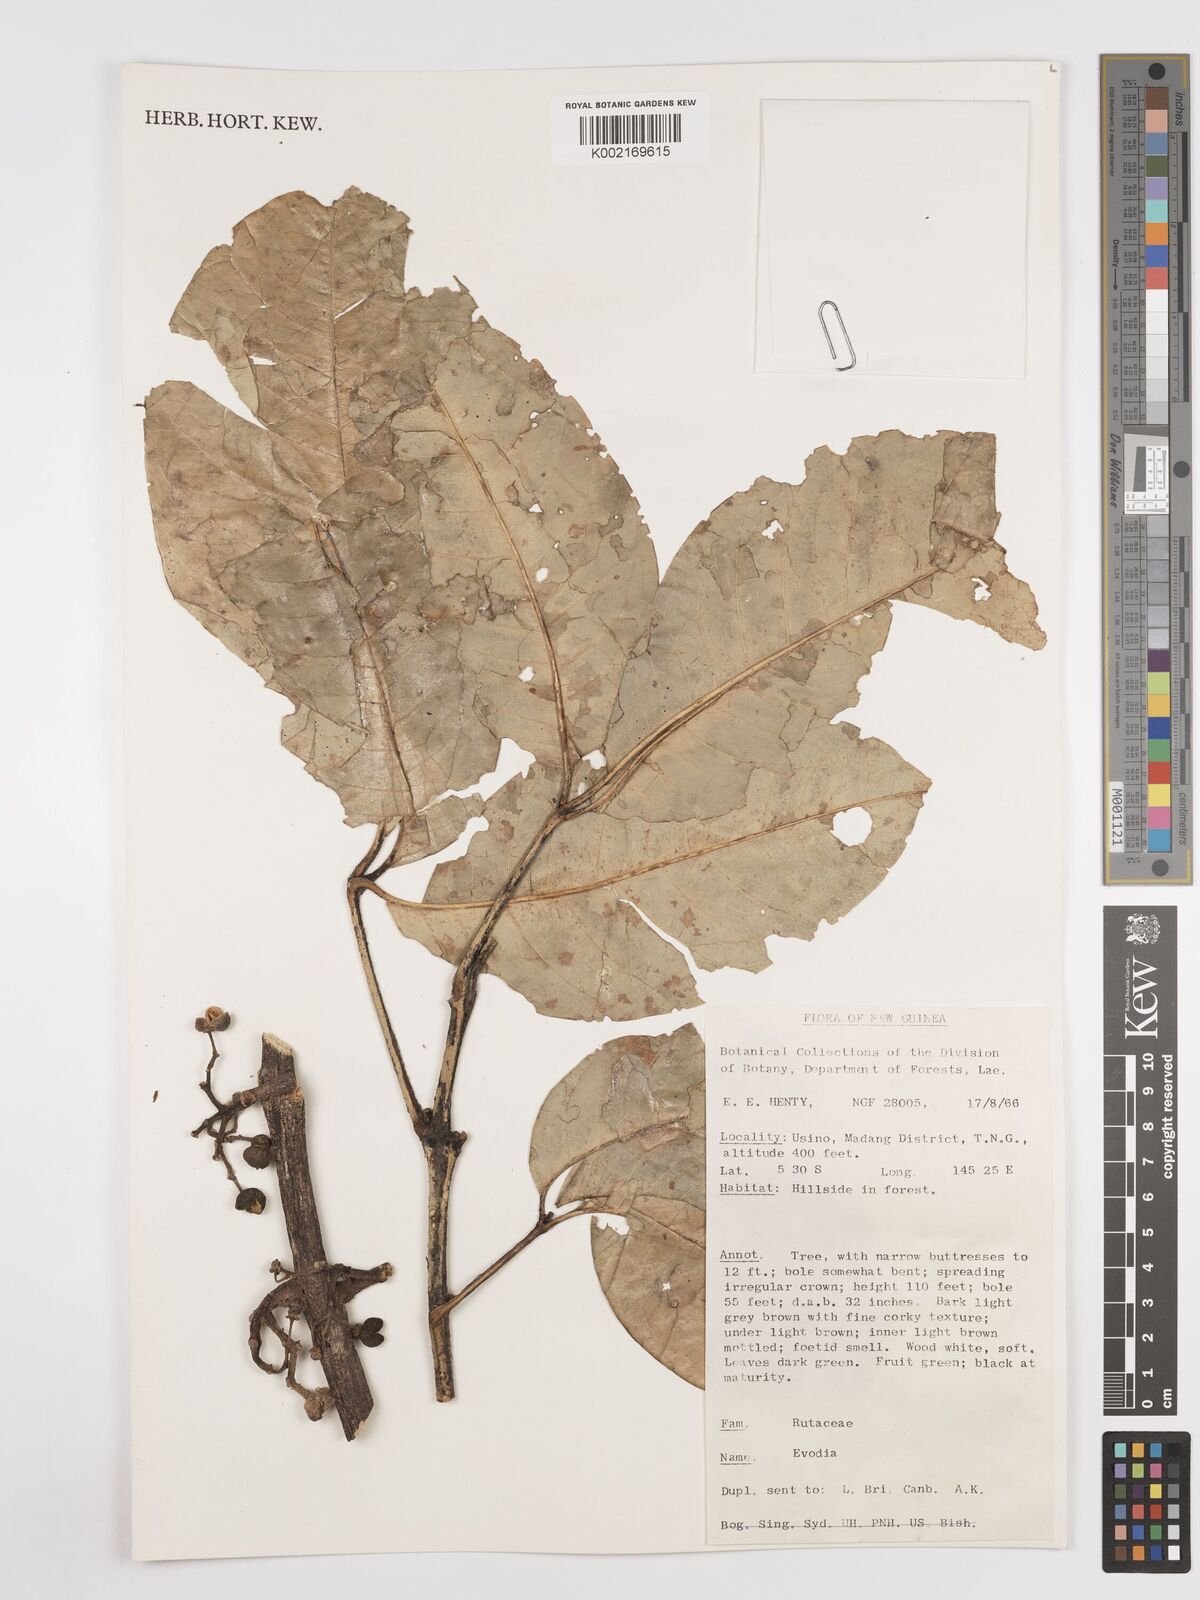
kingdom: Plantae
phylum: Tracheophyta
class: Magnoliopsida
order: Sapindales
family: Rutaceae
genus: Euodia
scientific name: Euodia
